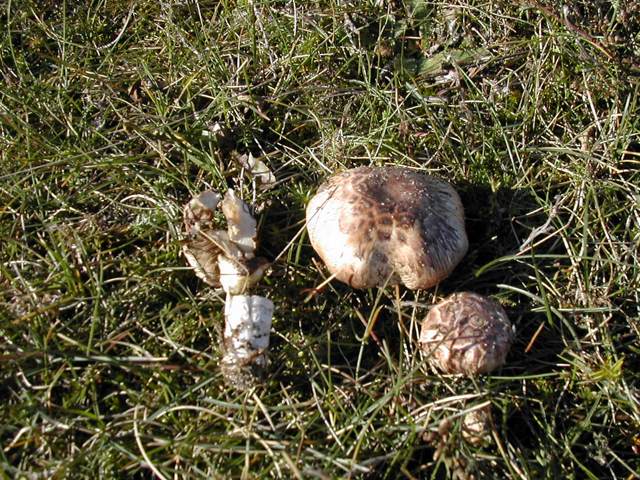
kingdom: Fungi
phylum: Basidiomycota
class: Agaricomycetes
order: Agaricales
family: Agaricaceae
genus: Agaricus
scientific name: Agaricus cupreobrunneus
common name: kobberbrun champignon
